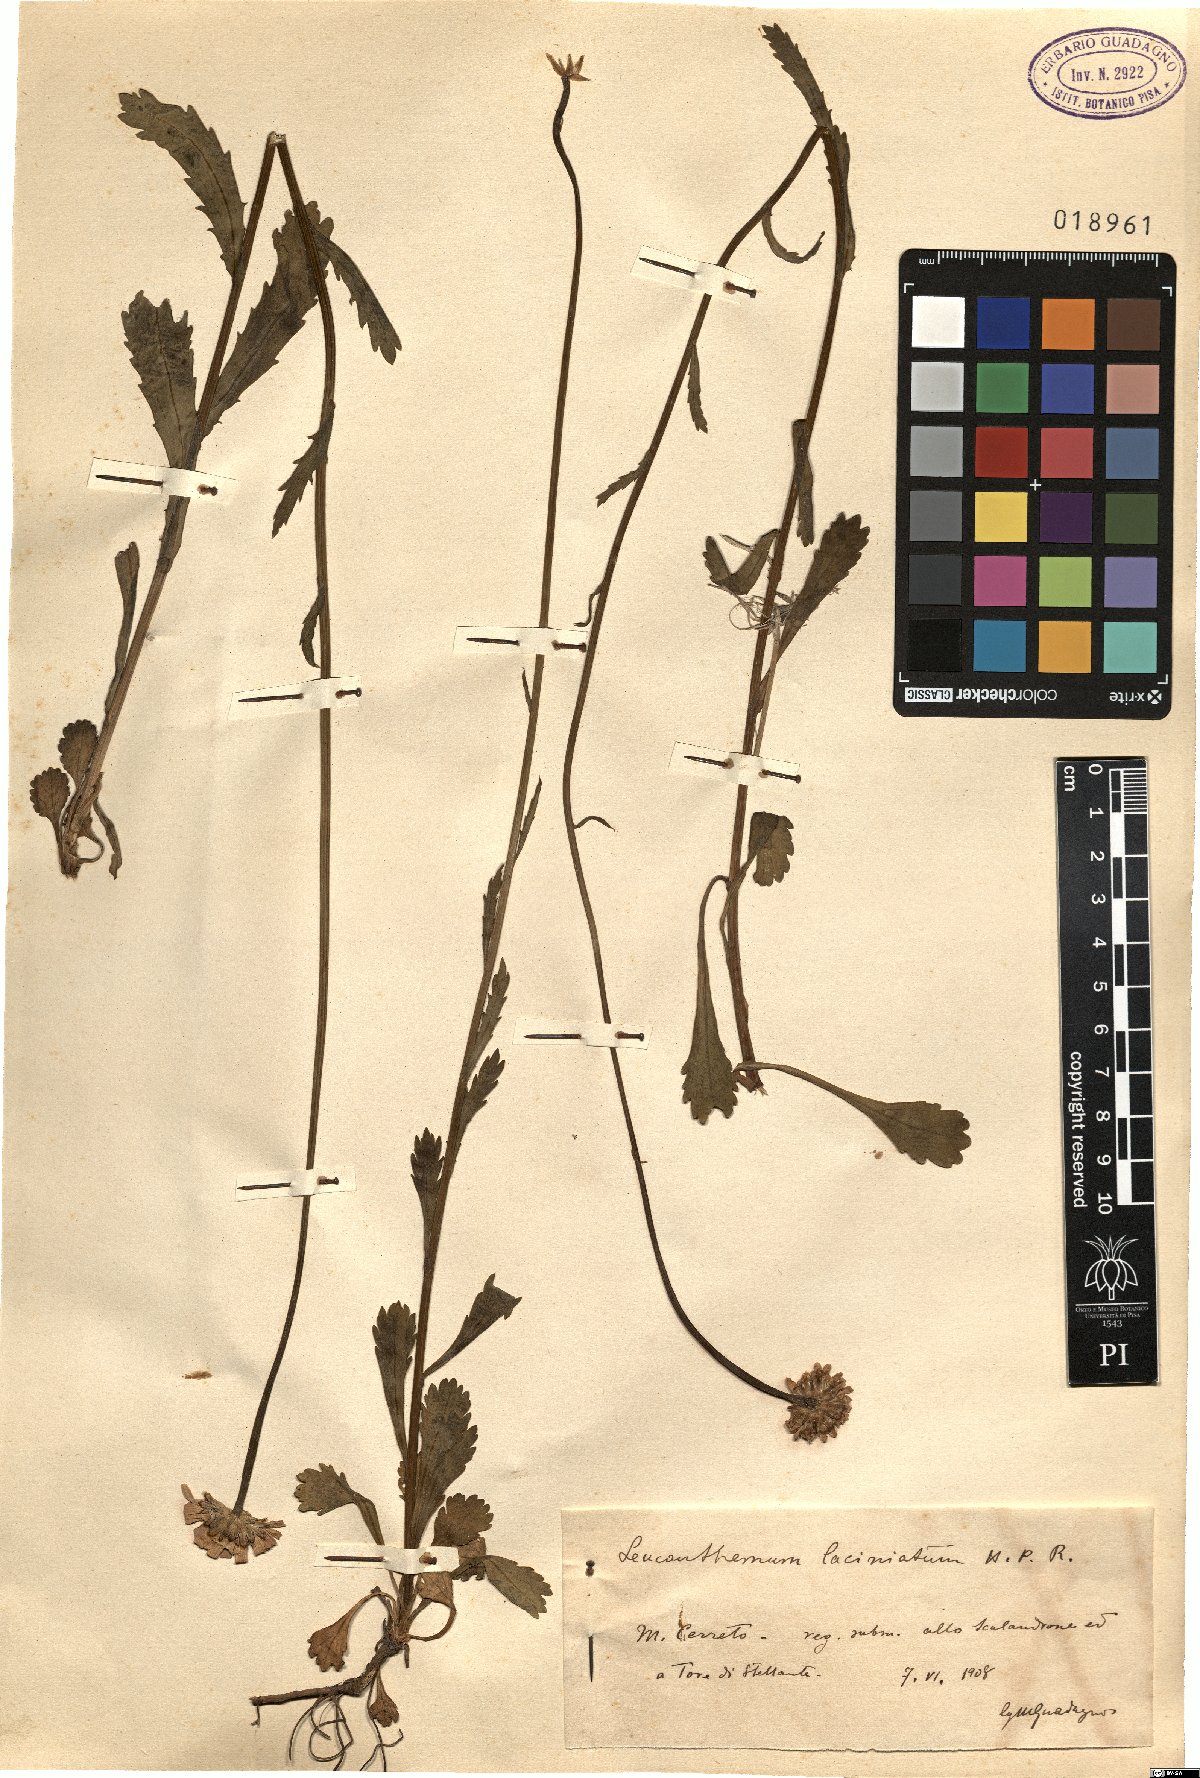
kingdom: Plantae
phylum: Tracheophyta
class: Magnoliopsida
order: Asterales
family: Asteraceae
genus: Leucanthemum
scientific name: Leucanthemum laciniatum
